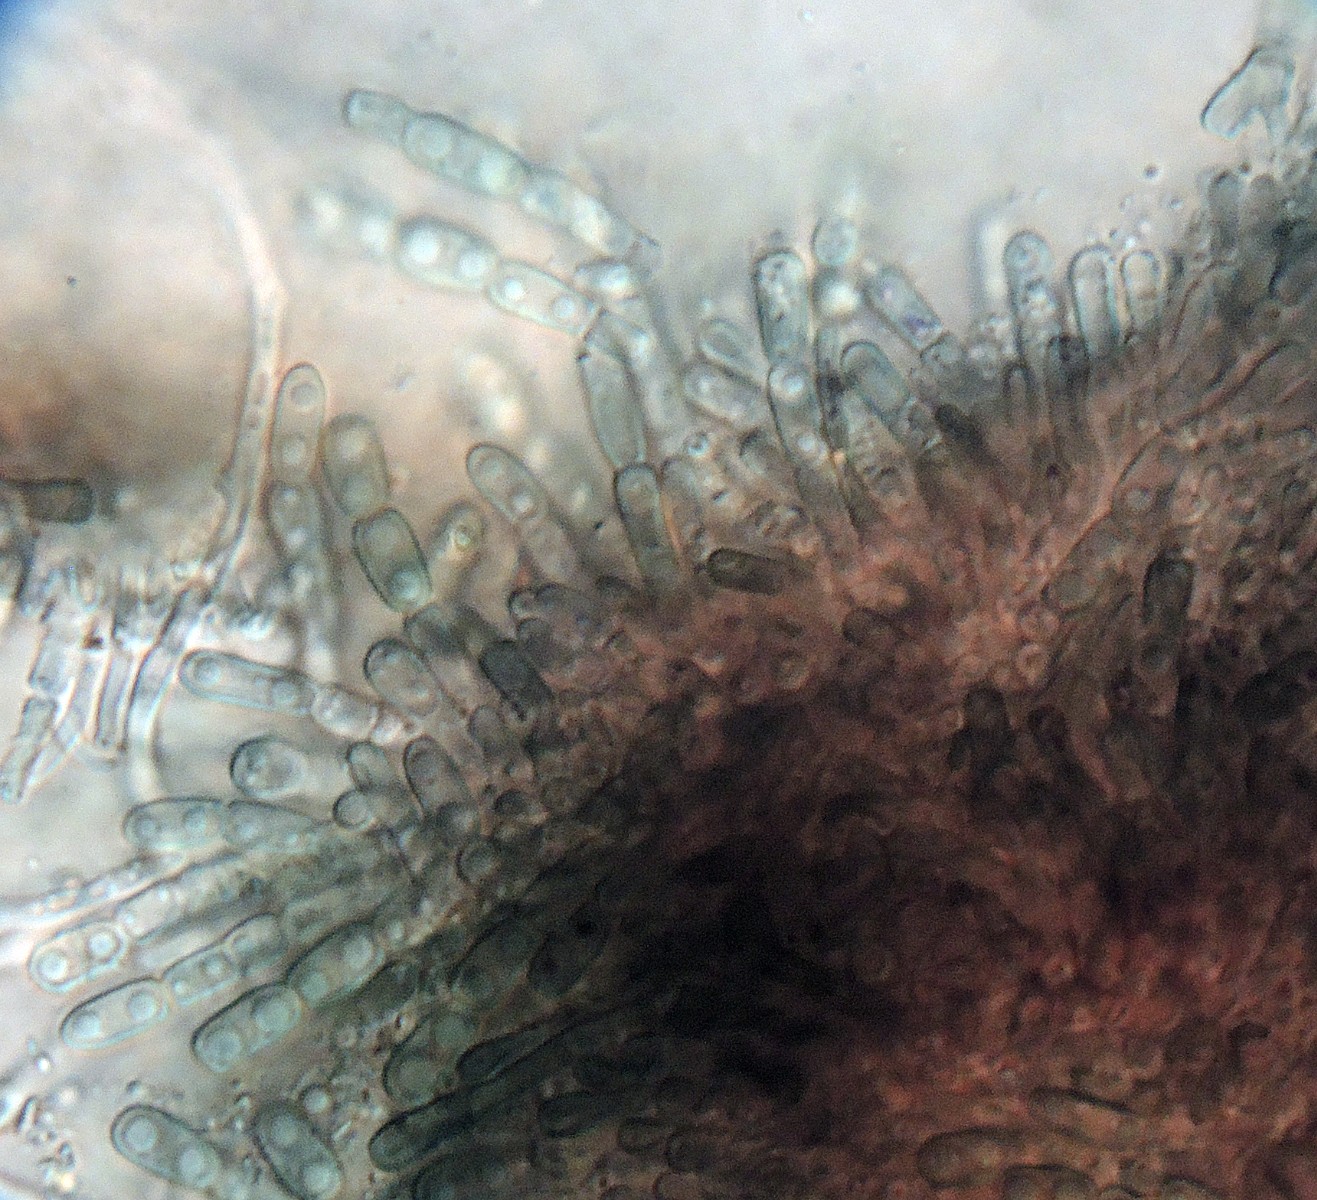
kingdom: Fungi
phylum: Ascomycota
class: Dothideomycetes
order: Pleosporales
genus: Vouauxiella
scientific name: Vouauxiella lichenicola
